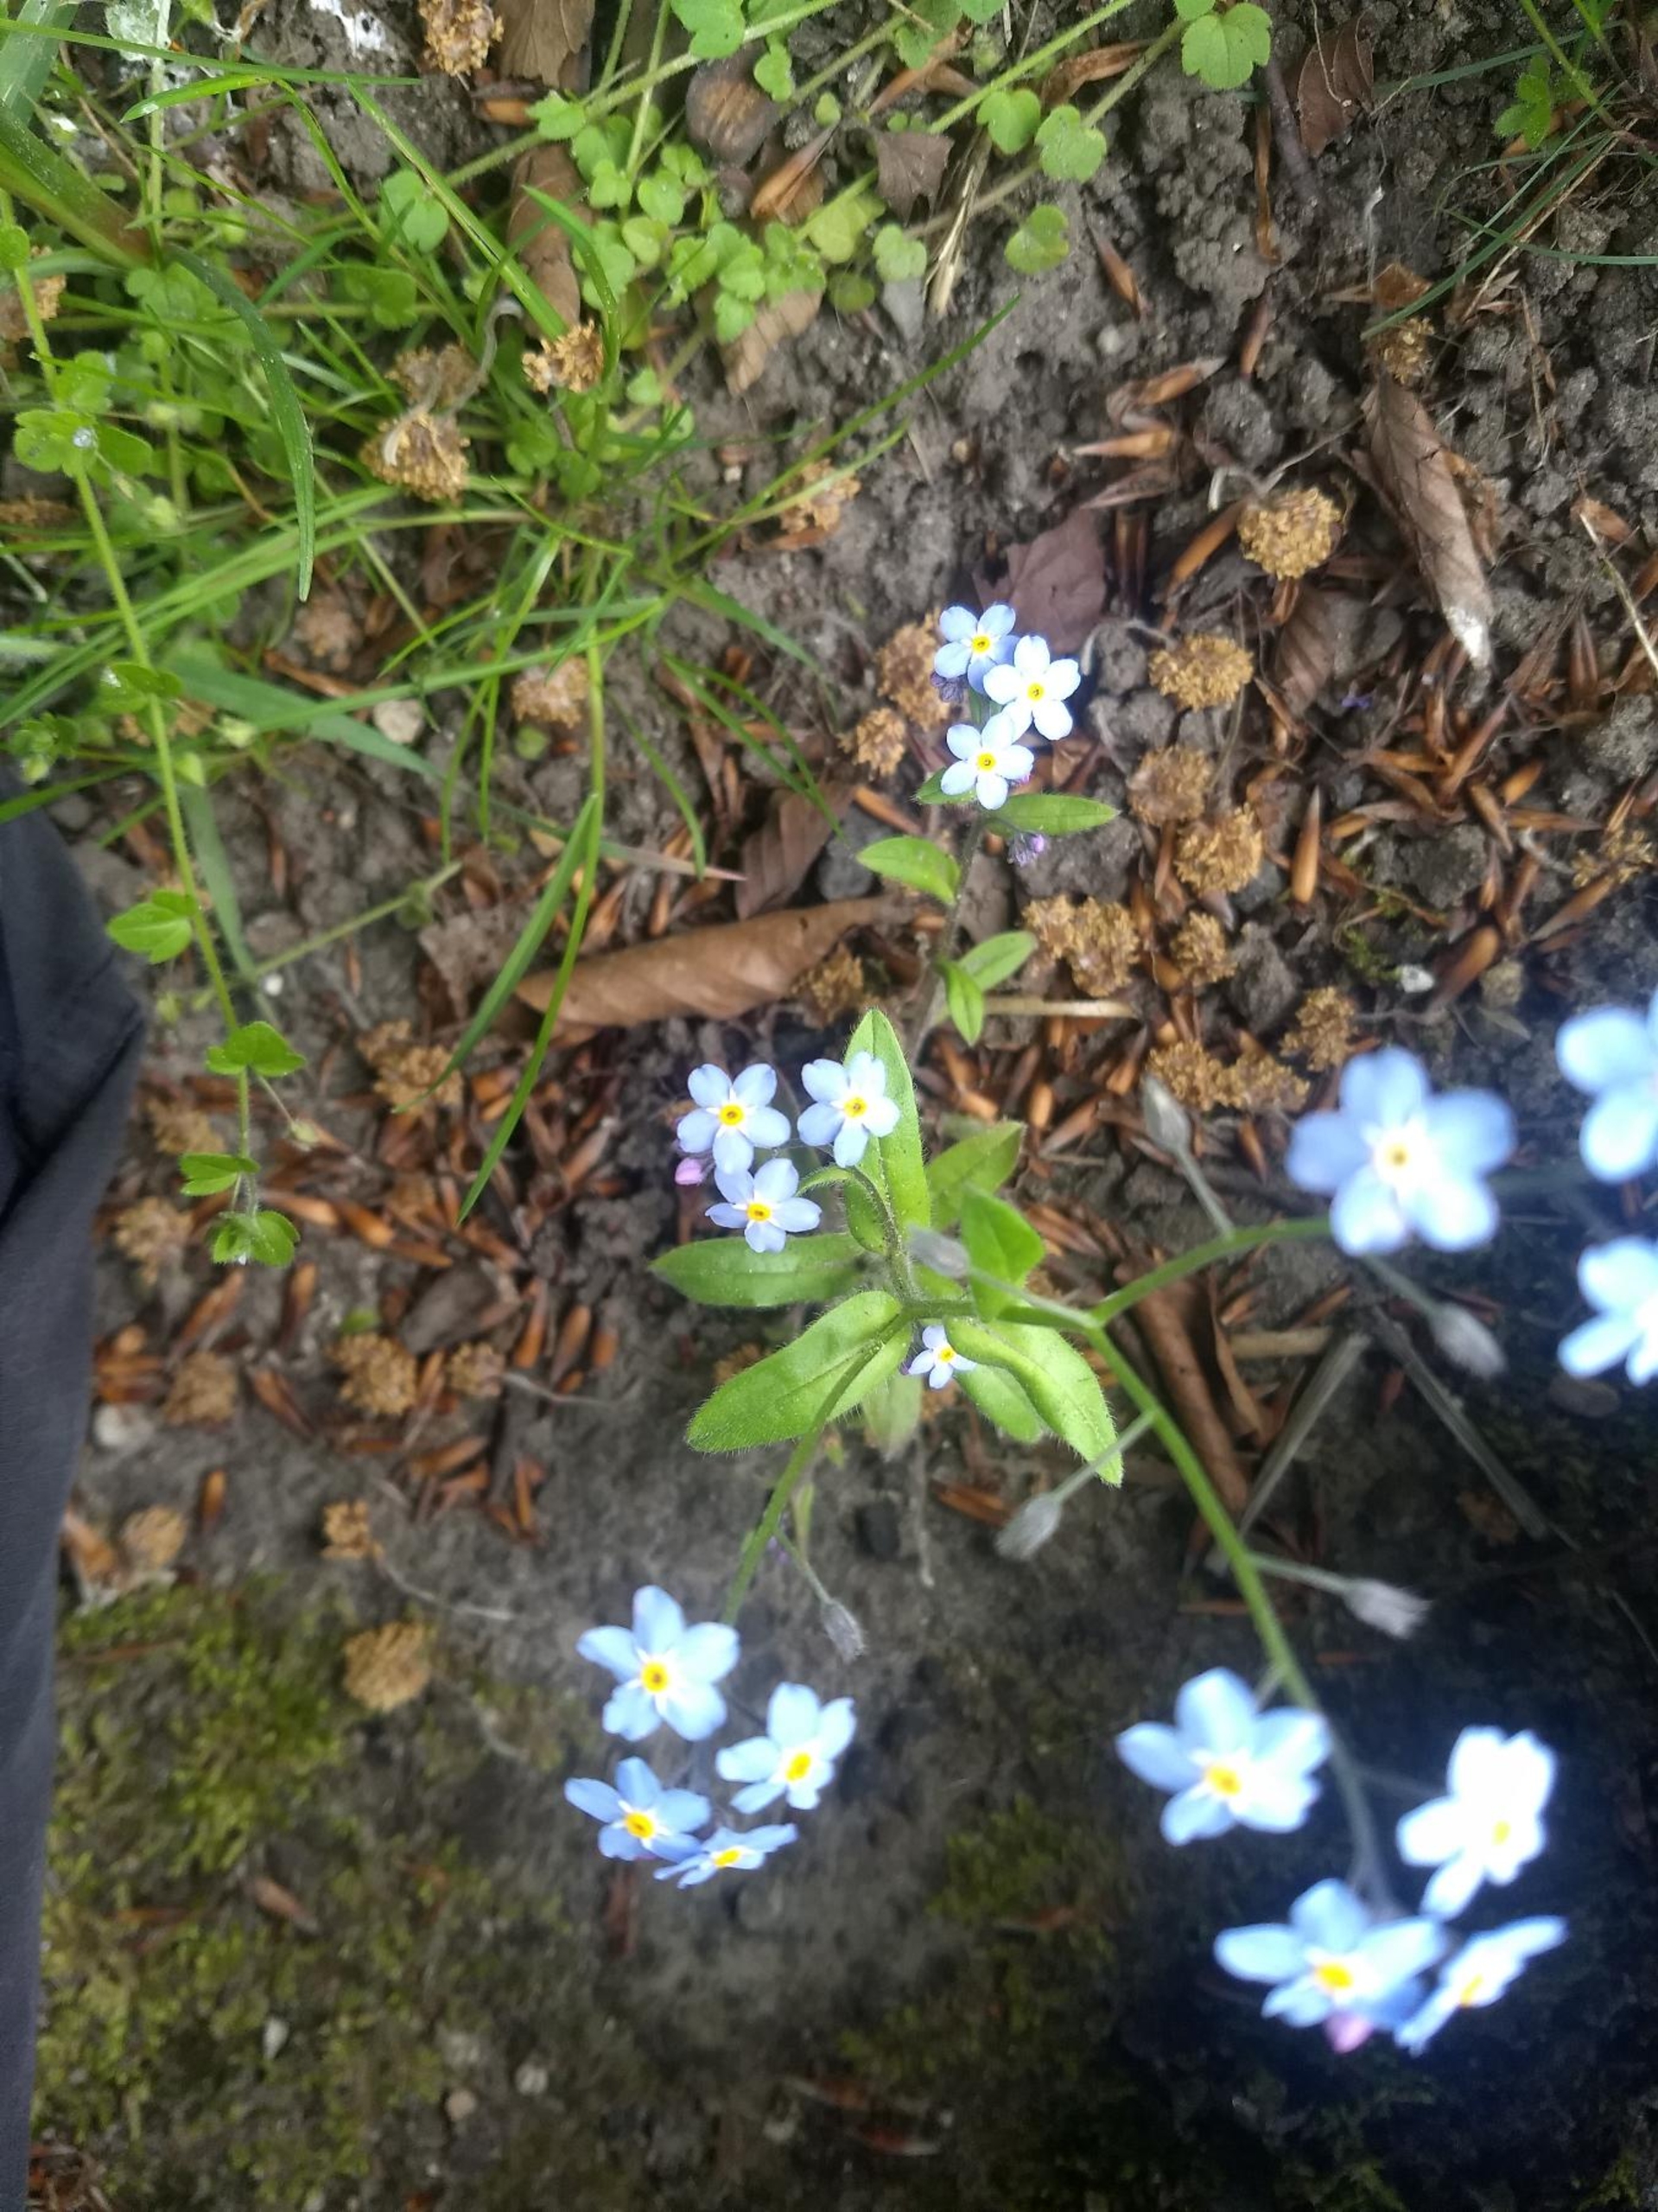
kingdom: Plantae
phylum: Tracheophyta
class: Magnoliopsida
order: Boraginales
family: Boraginaceae
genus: Myosotis
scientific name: Myosotis sylvatica
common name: Skov-forglemmigej
